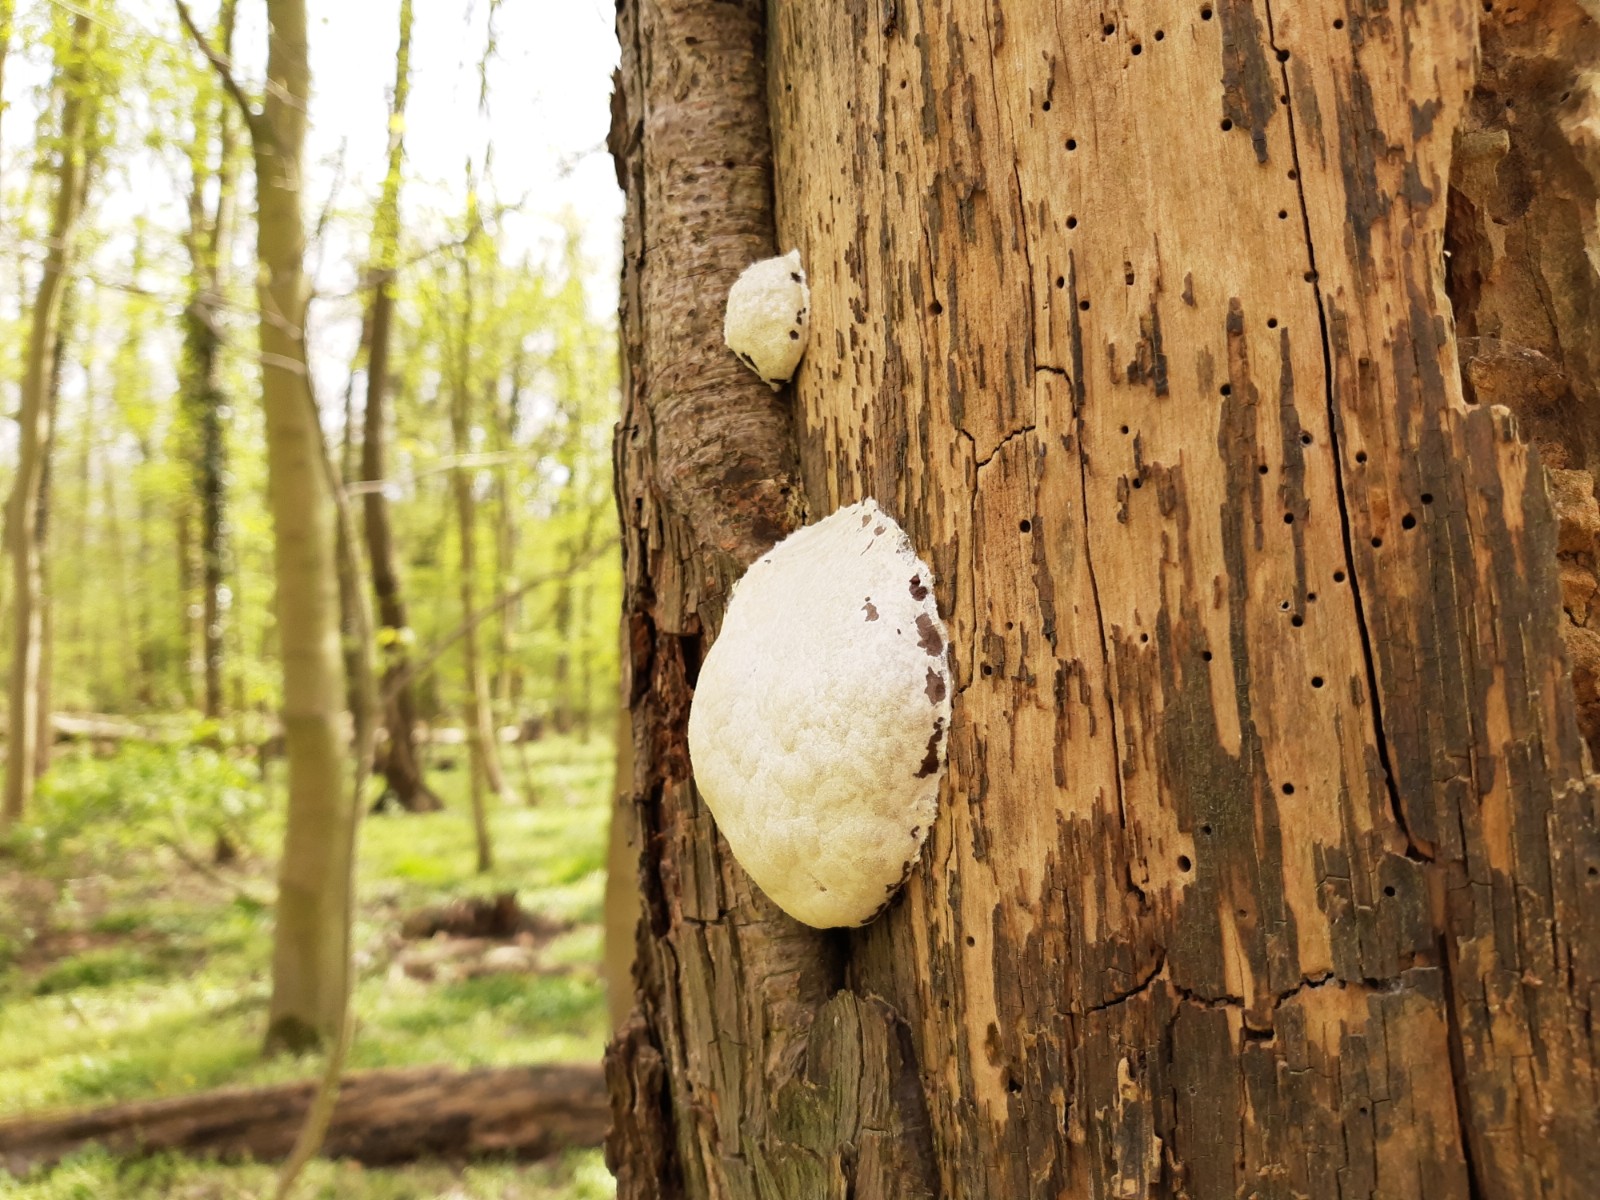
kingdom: Protozoa
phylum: Mycetozoa
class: Myxomycetes
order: Cribrariales
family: Tubiferaceae
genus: Reticularia
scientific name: Reticularia lycoperdon
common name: skinnende støvpude
